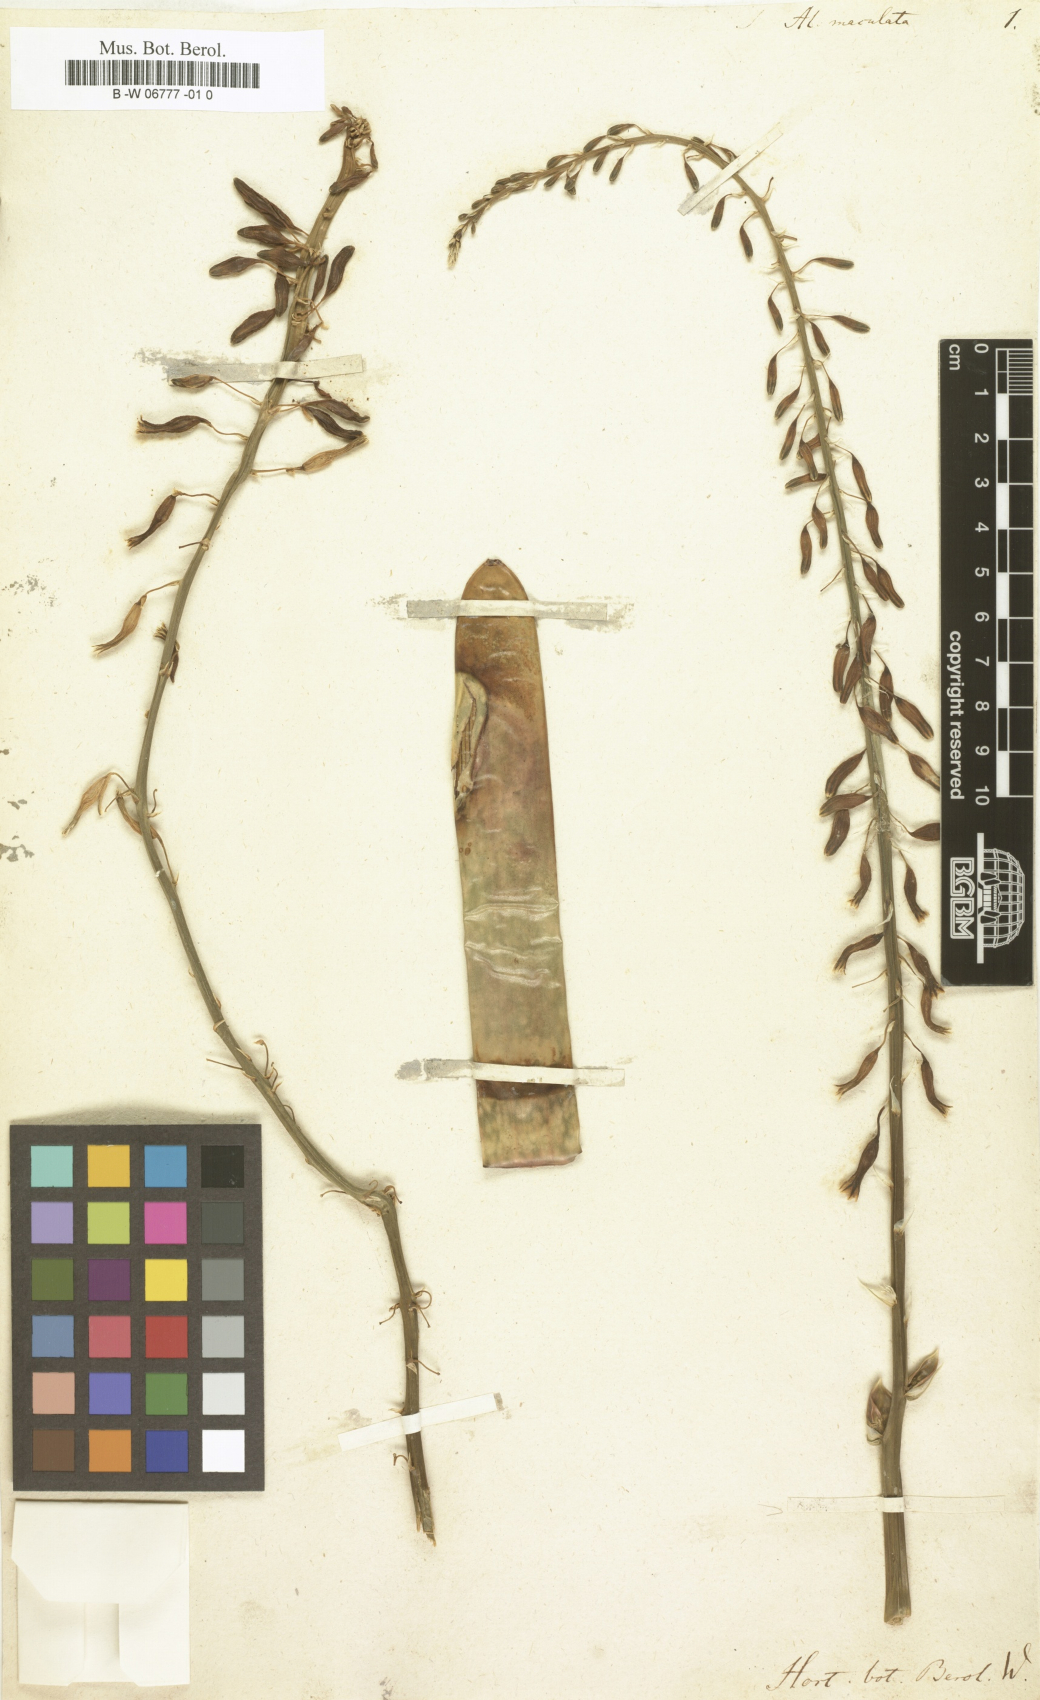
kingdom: Plantae
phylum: Tracheophyta
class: Liliopsida
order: Asparagales
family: Asphodelaceae
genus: Aloe
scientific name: Aloe maculata
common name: Broadleaf aloe
